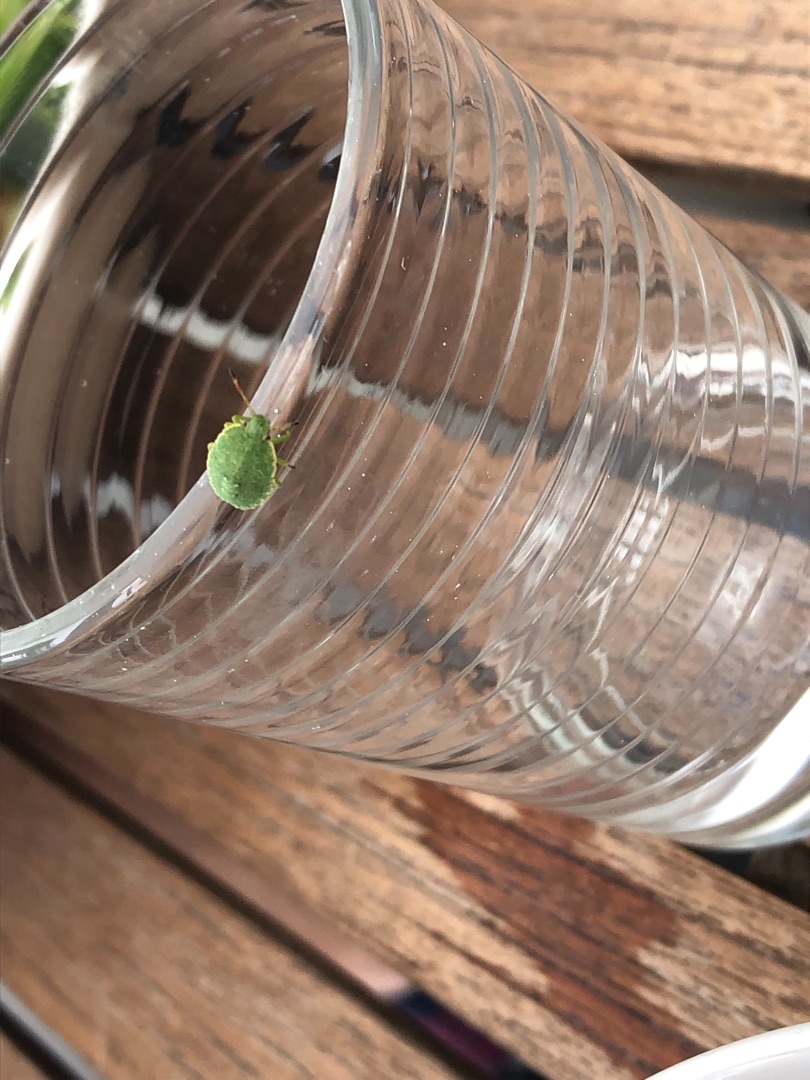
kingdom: Animalia
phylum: Arthropoda
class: Insecta
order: Hemiptera
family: Pentatomidae
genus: Palomena
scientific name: Palomena prasina
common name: Grøn bredtæge
